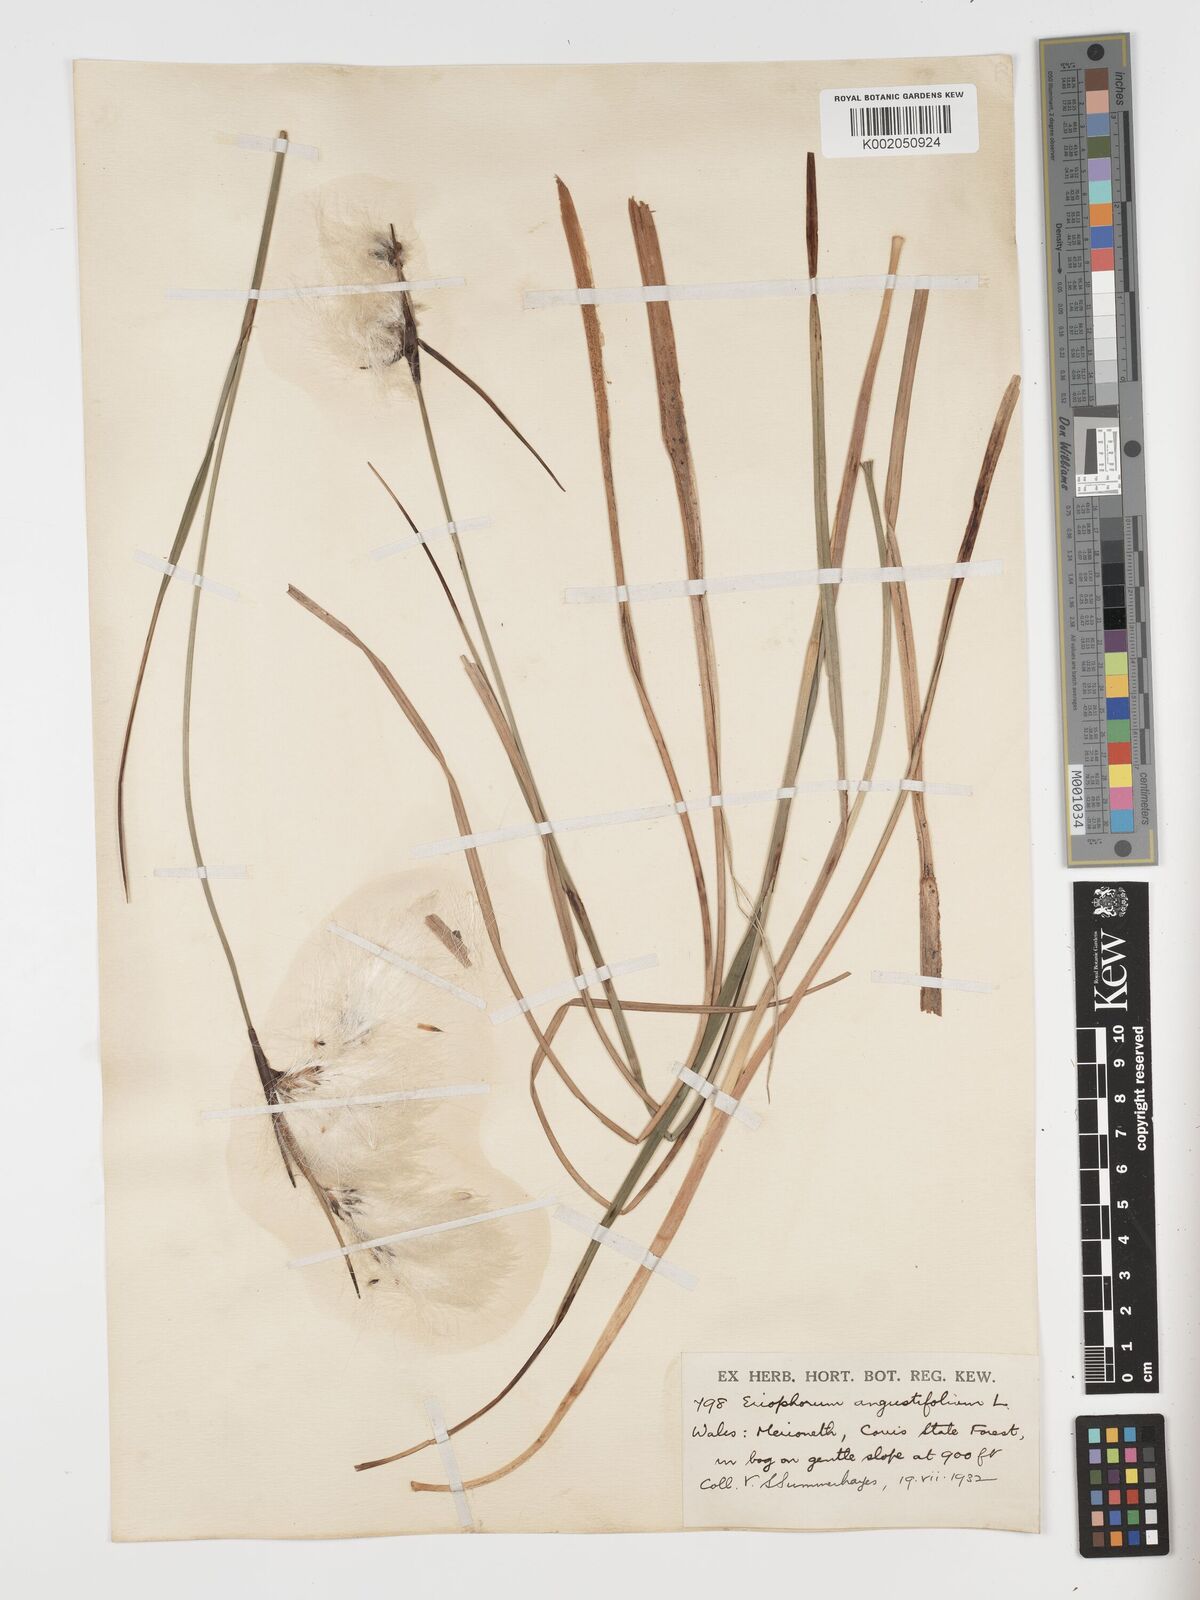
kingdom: Plantae
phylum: Tracheophyta
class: Liliopsida
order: Poales
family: Cyperaceae
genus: Eriophorum
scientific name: Eriophorum angustifolium
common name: Common cottongrass
